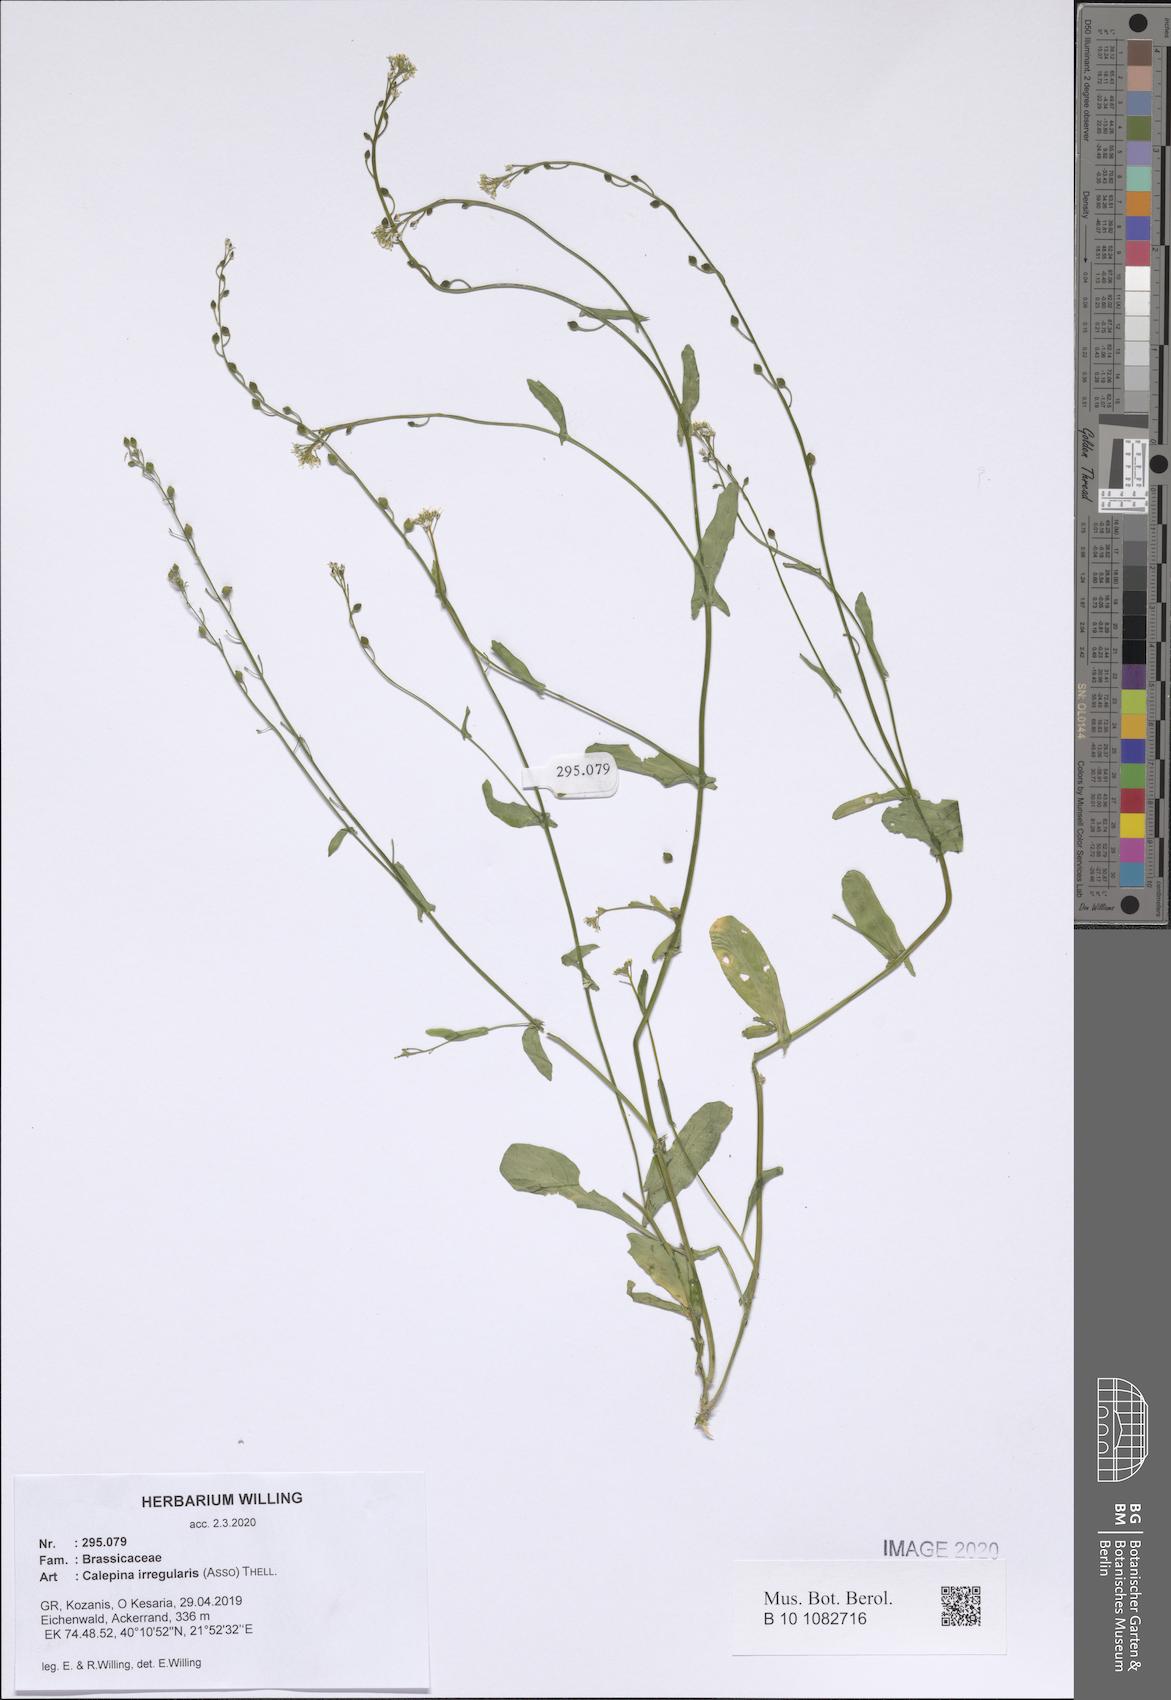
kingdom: Plantae
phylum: Tracheophyta
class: Magnoliopsida
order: Brassicales
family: Brassicaceae
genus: Calepina
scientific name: Calepina irregularis
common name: White ballmustard
